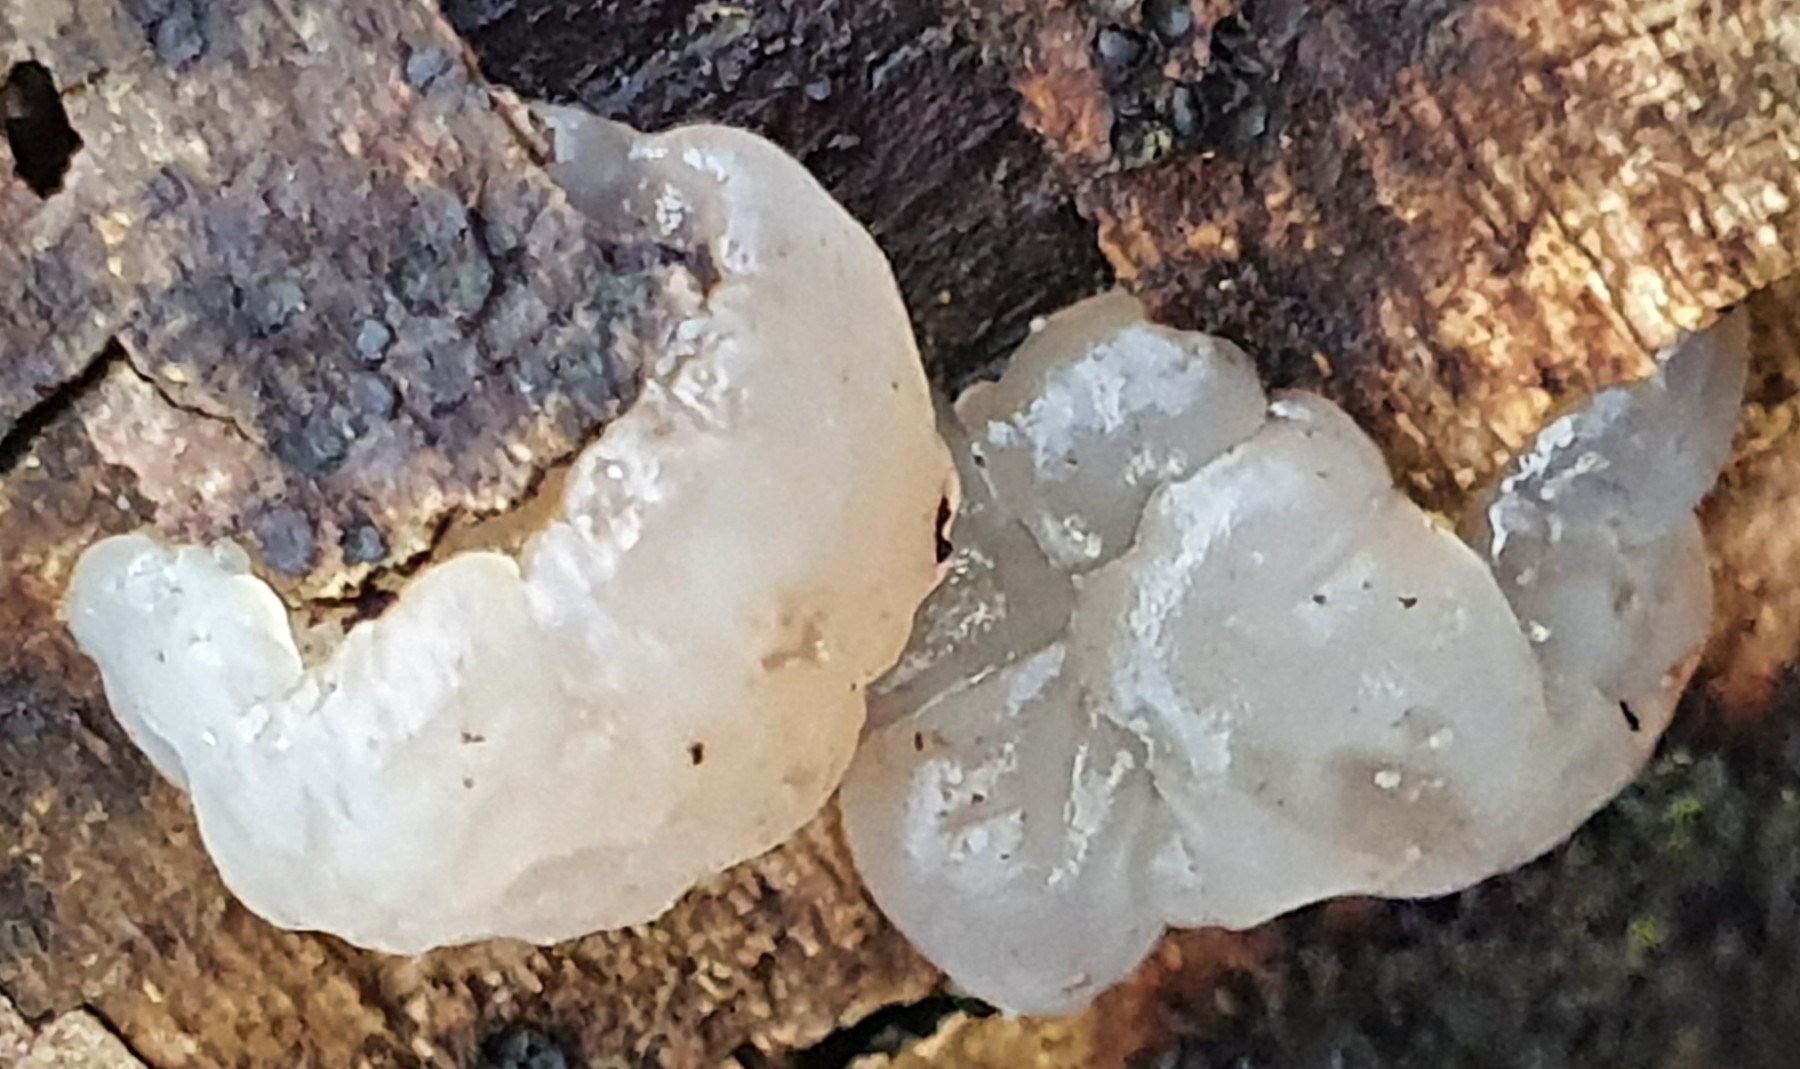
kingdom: Fungi
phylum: Basidiomycota
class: Agaricomycetes
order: Auriculariales
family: Hyaloriaceae
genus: Myxarium
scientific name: Myxarium nucleatum
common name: klar bævretop
